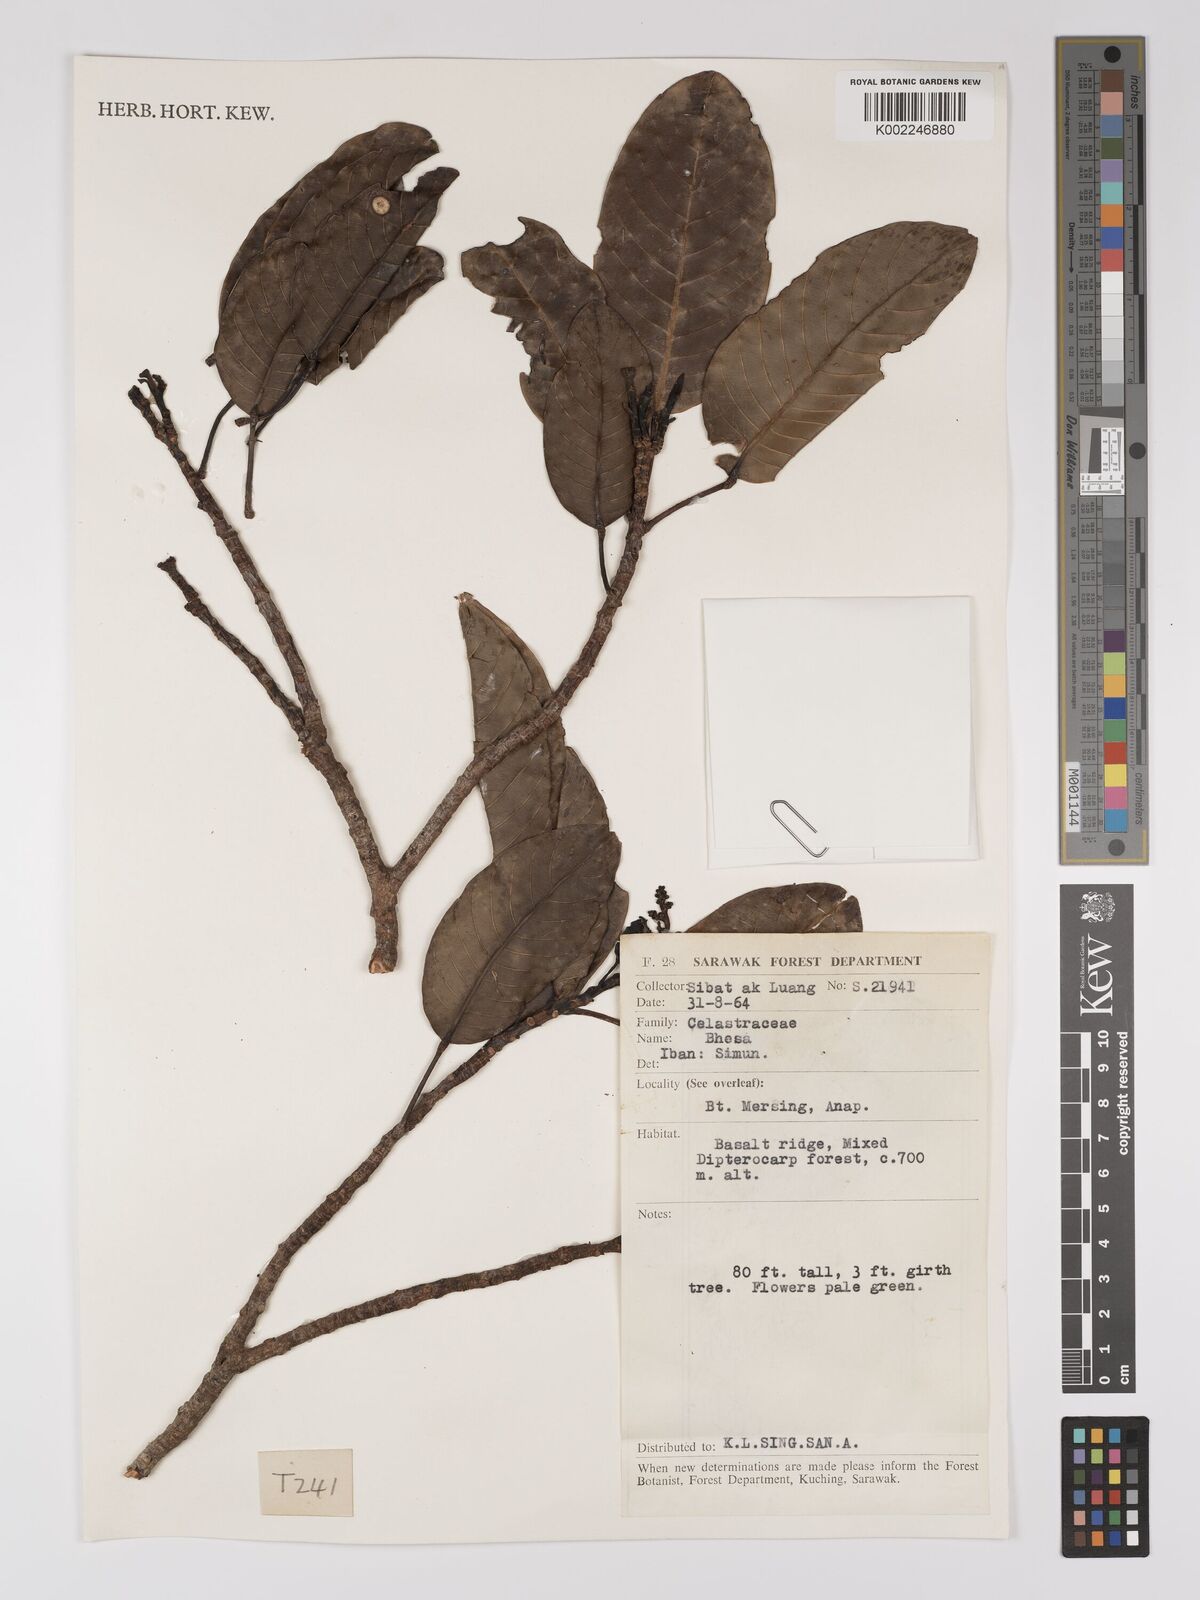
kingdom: Plantae
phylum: Tracheophyta
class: Magnoliopsida
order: Malpighiales
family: Centroplacaceae
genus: Bhesa
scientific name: Bhesa paniculata
